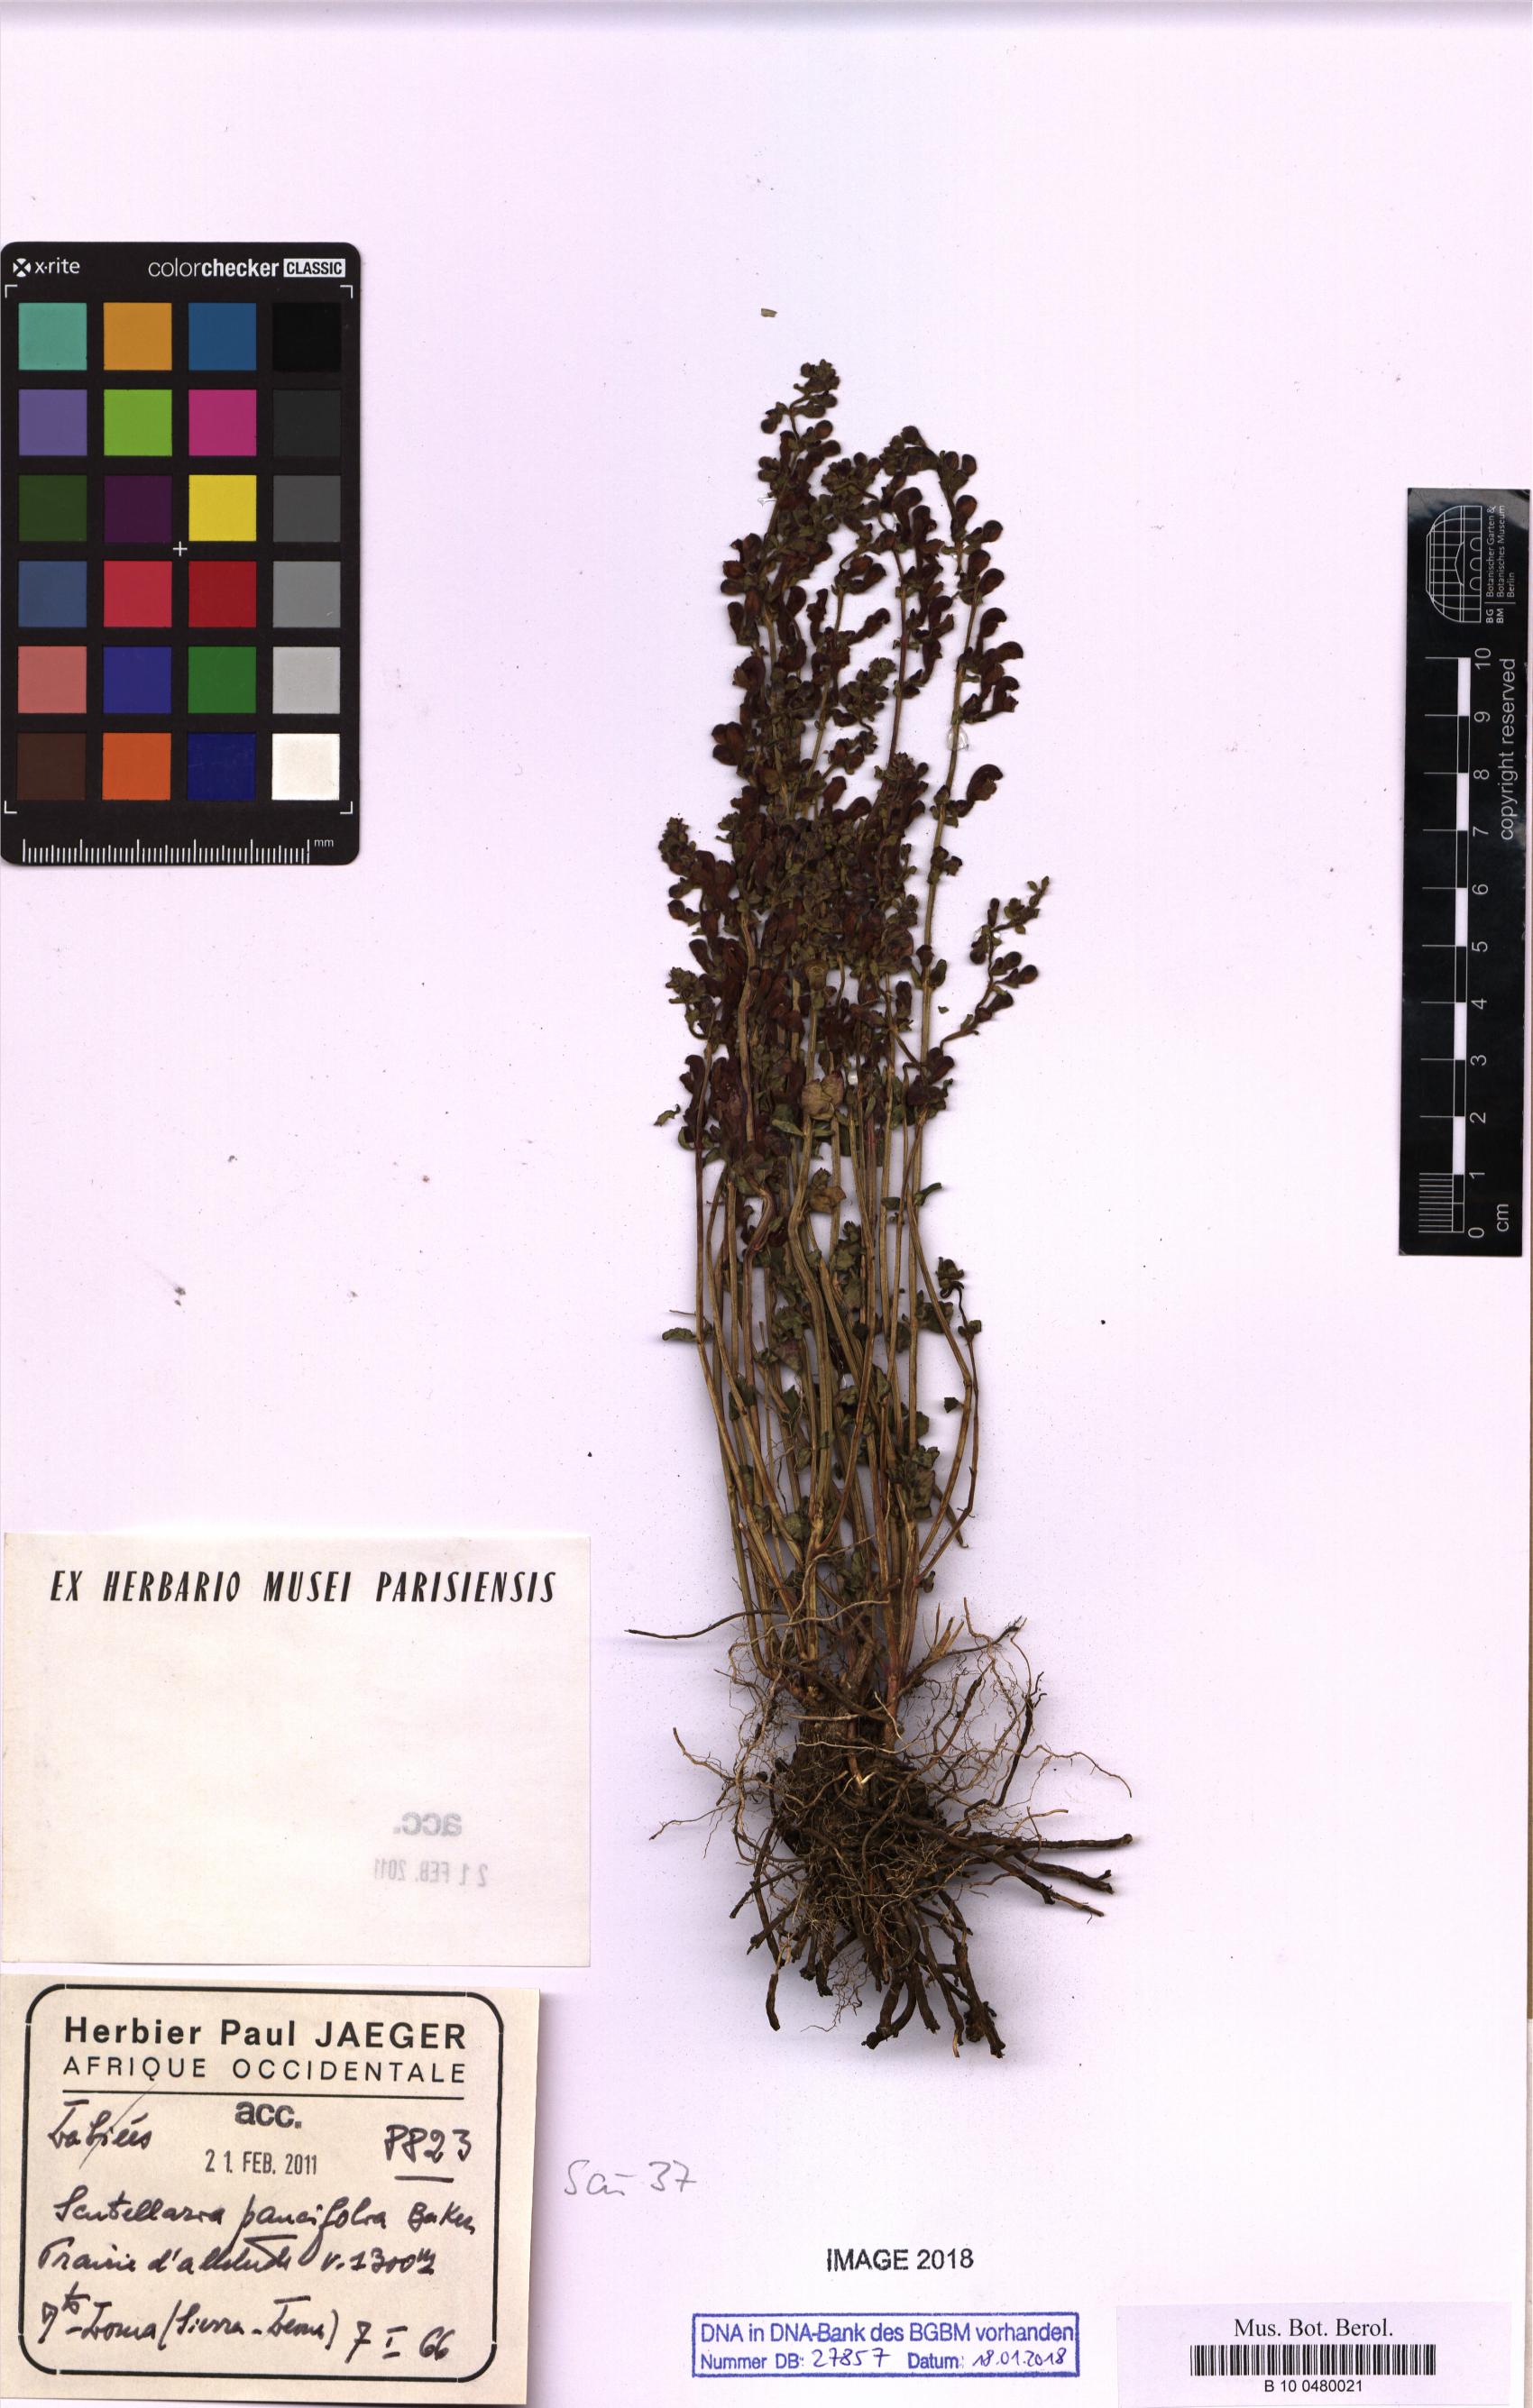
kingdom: Plantae
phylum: Tracheophyta
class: Magnoliopsida
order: Lamiales
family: Lamiaceae
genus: Scutellaria
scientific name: Scutellaria galericulata
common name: Skullcap
